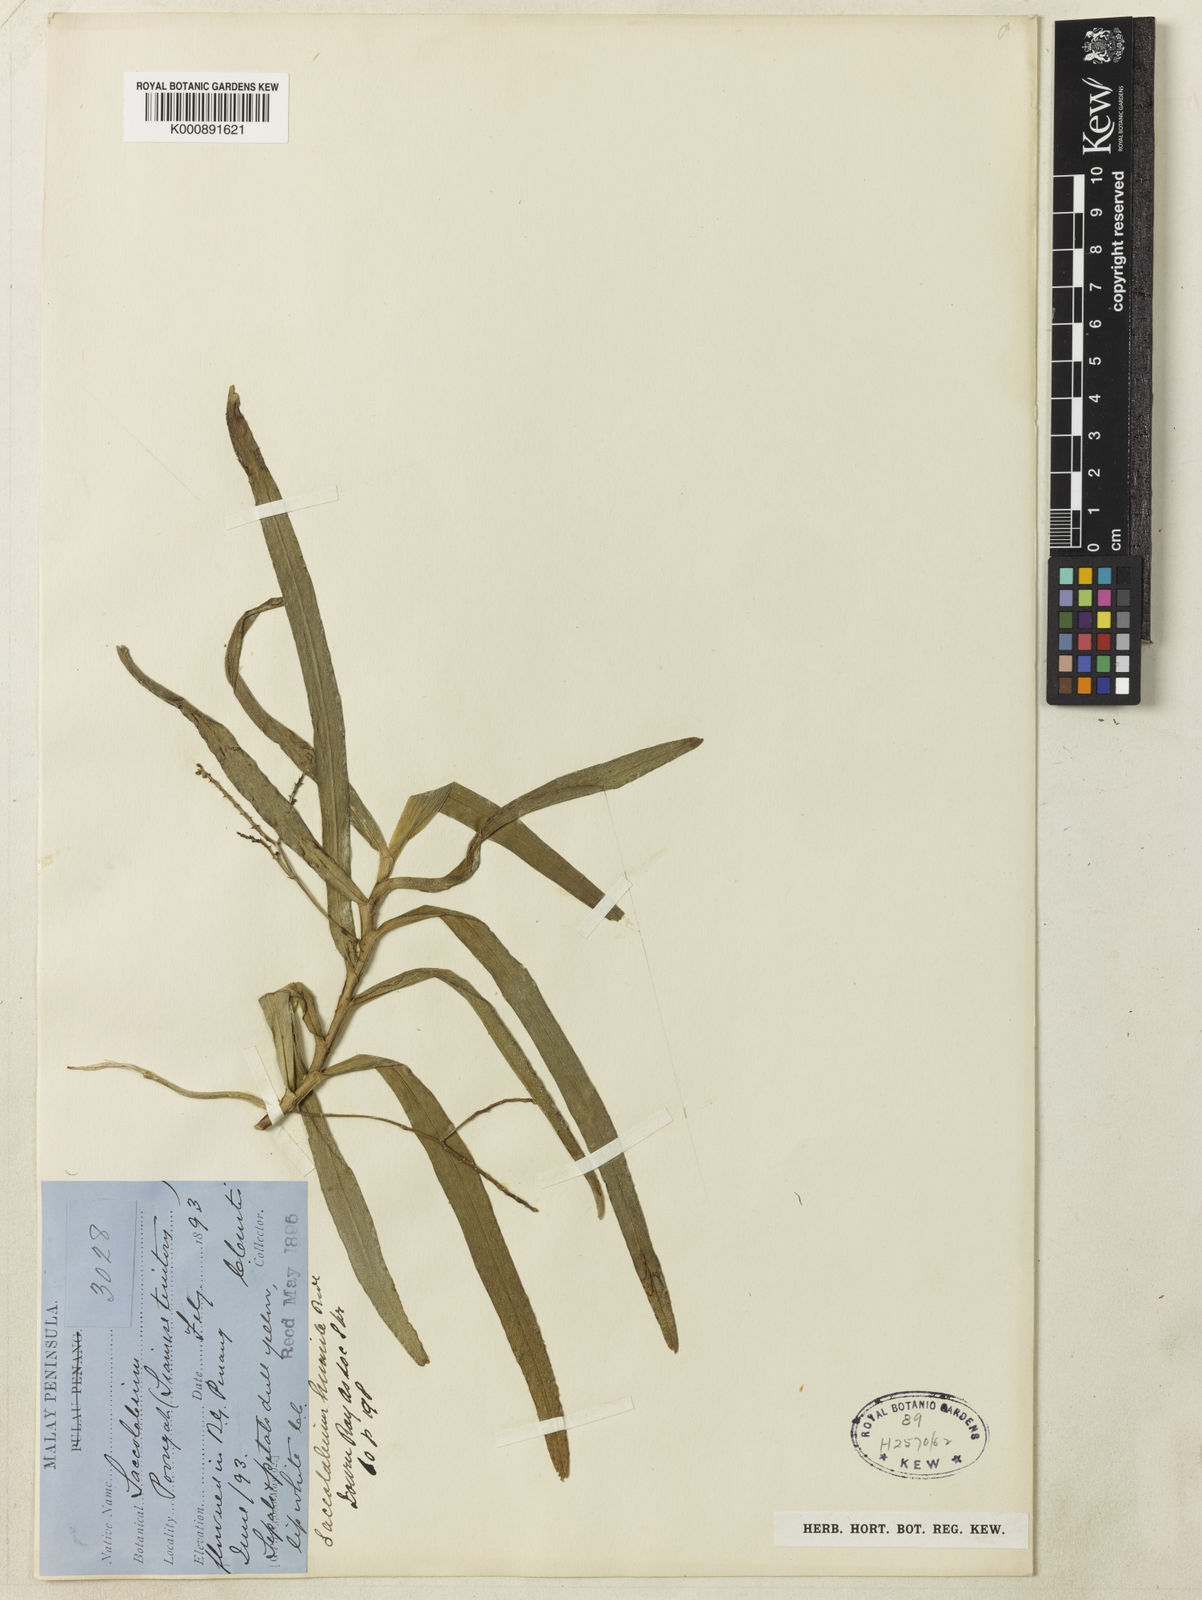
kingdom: Plantae
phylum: Tracheophyta
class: Liliopsida
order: Asparagales
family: Orchidaceae
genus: Smitinandia
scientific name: Smitinandia helferi
